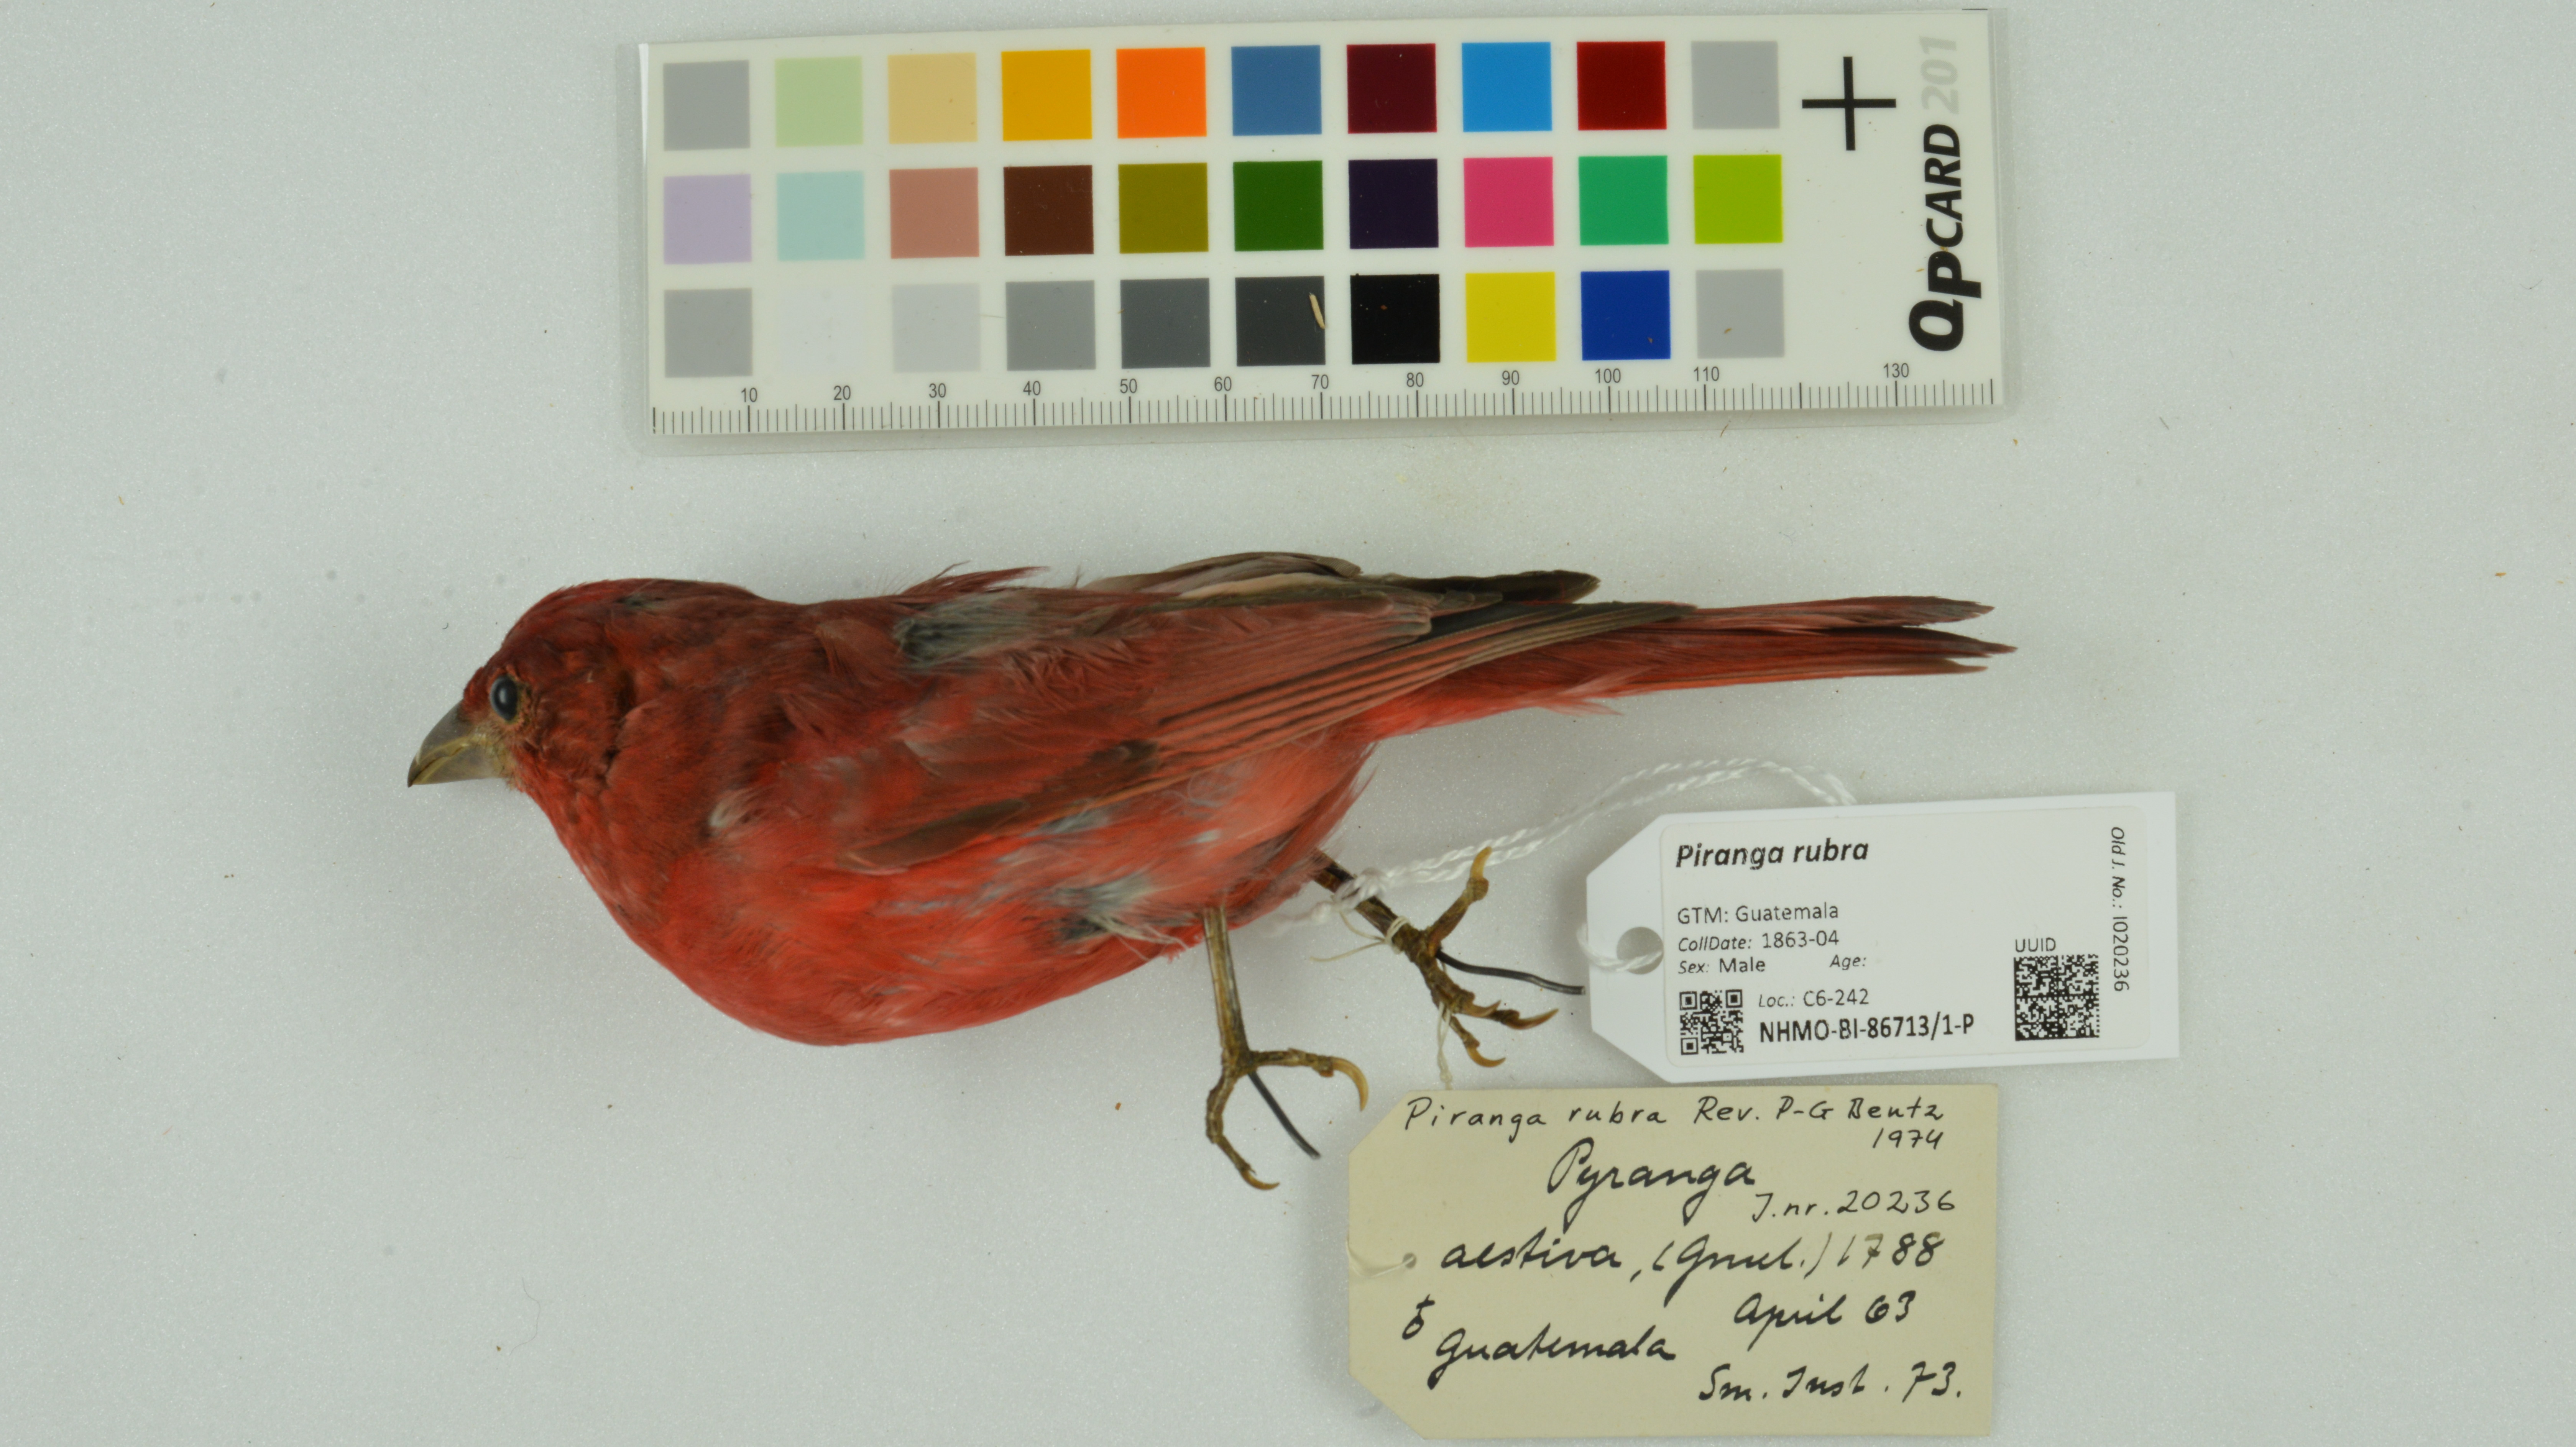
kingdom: Animalia
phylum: Chordata
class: Aves
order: Passeriformes
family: Cardinalidae
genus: Piranga
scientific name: Piranga rubra
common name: Summer tanager
